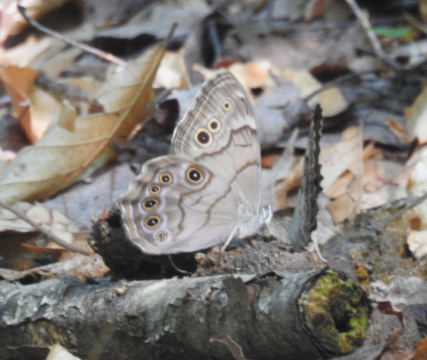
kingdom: Animalia
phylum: Arthropoda
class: Insecta
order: Lepidoptera
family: Nymphalidae
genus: Lethe
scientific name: Lethe anthedon
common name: Northern Pearly-Eye
